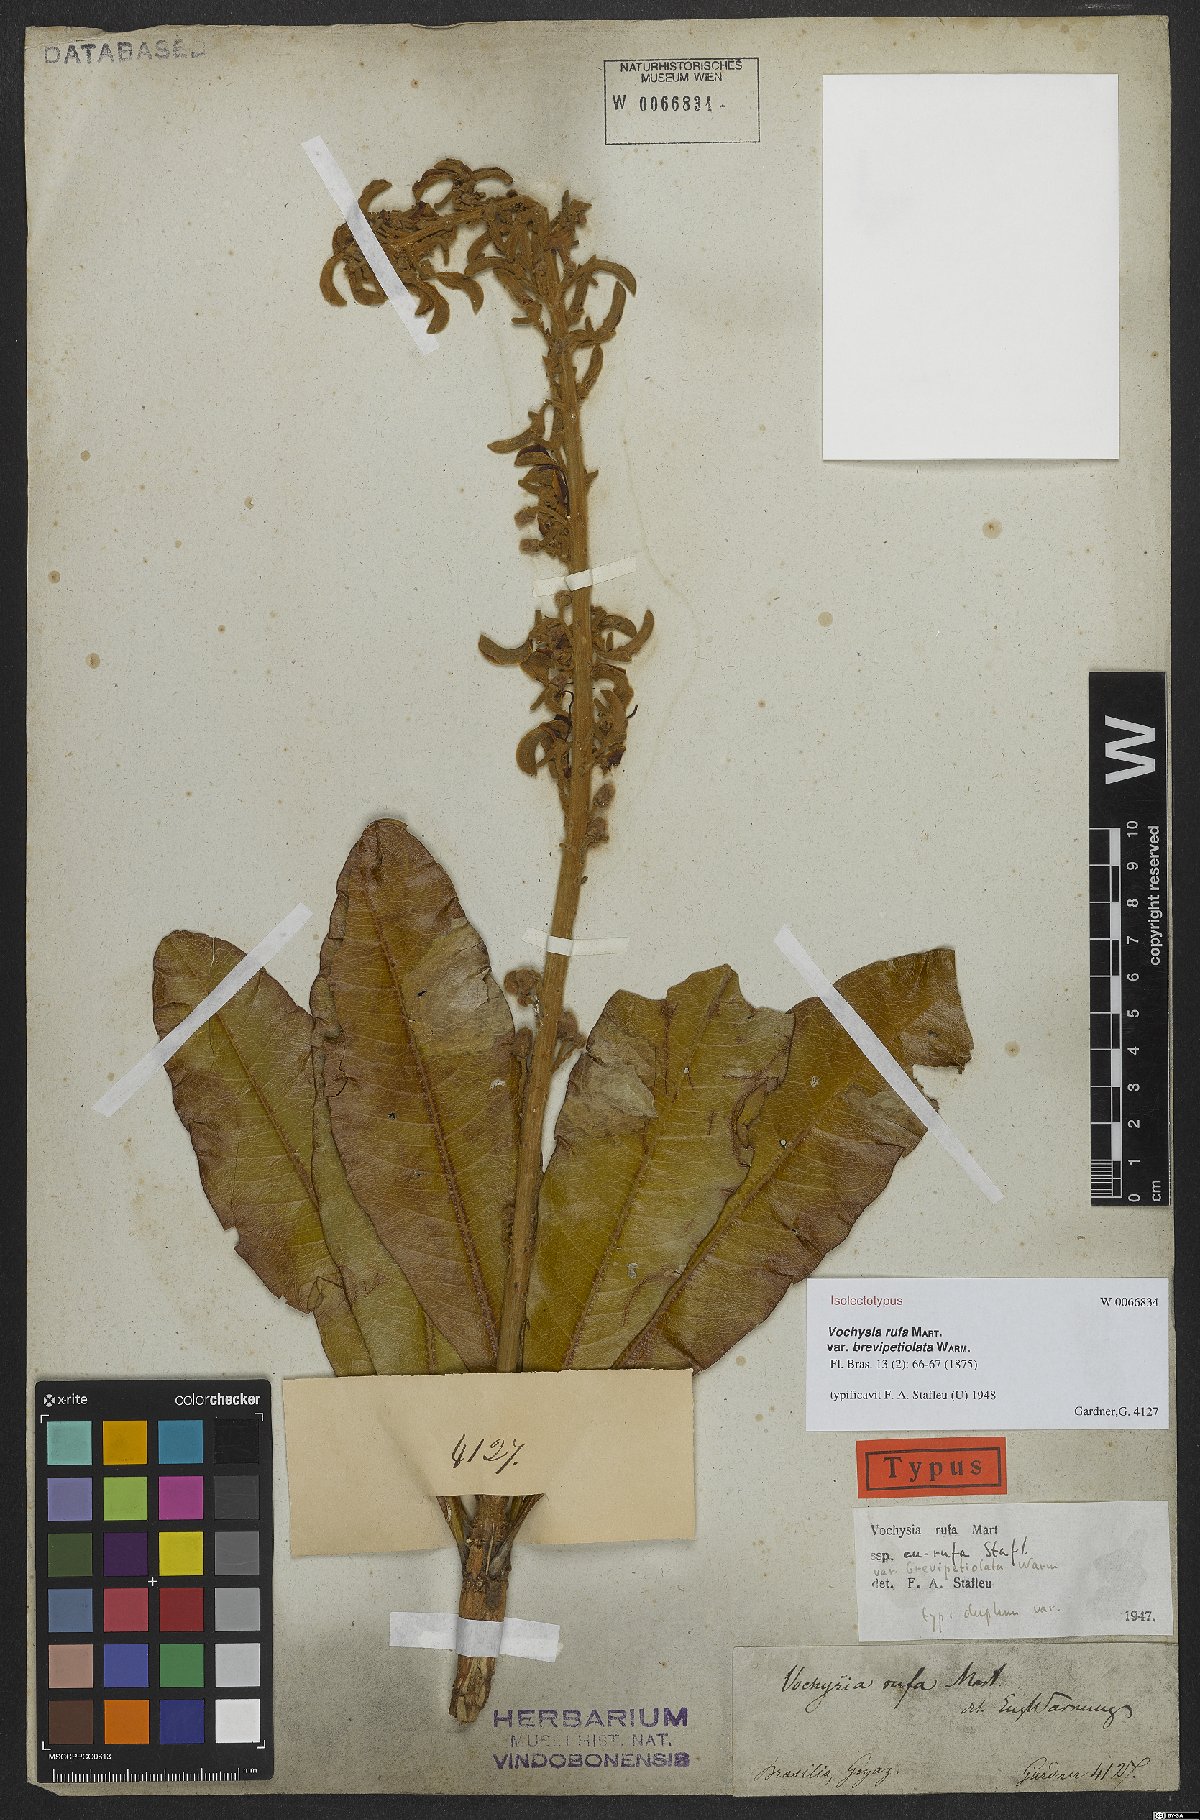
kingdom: Plantae
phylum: Tracheophyta
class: Magnoliopsida
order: Myrtales
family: Vochysiaceae
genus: Vochysia
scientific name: Vochysia rufa
